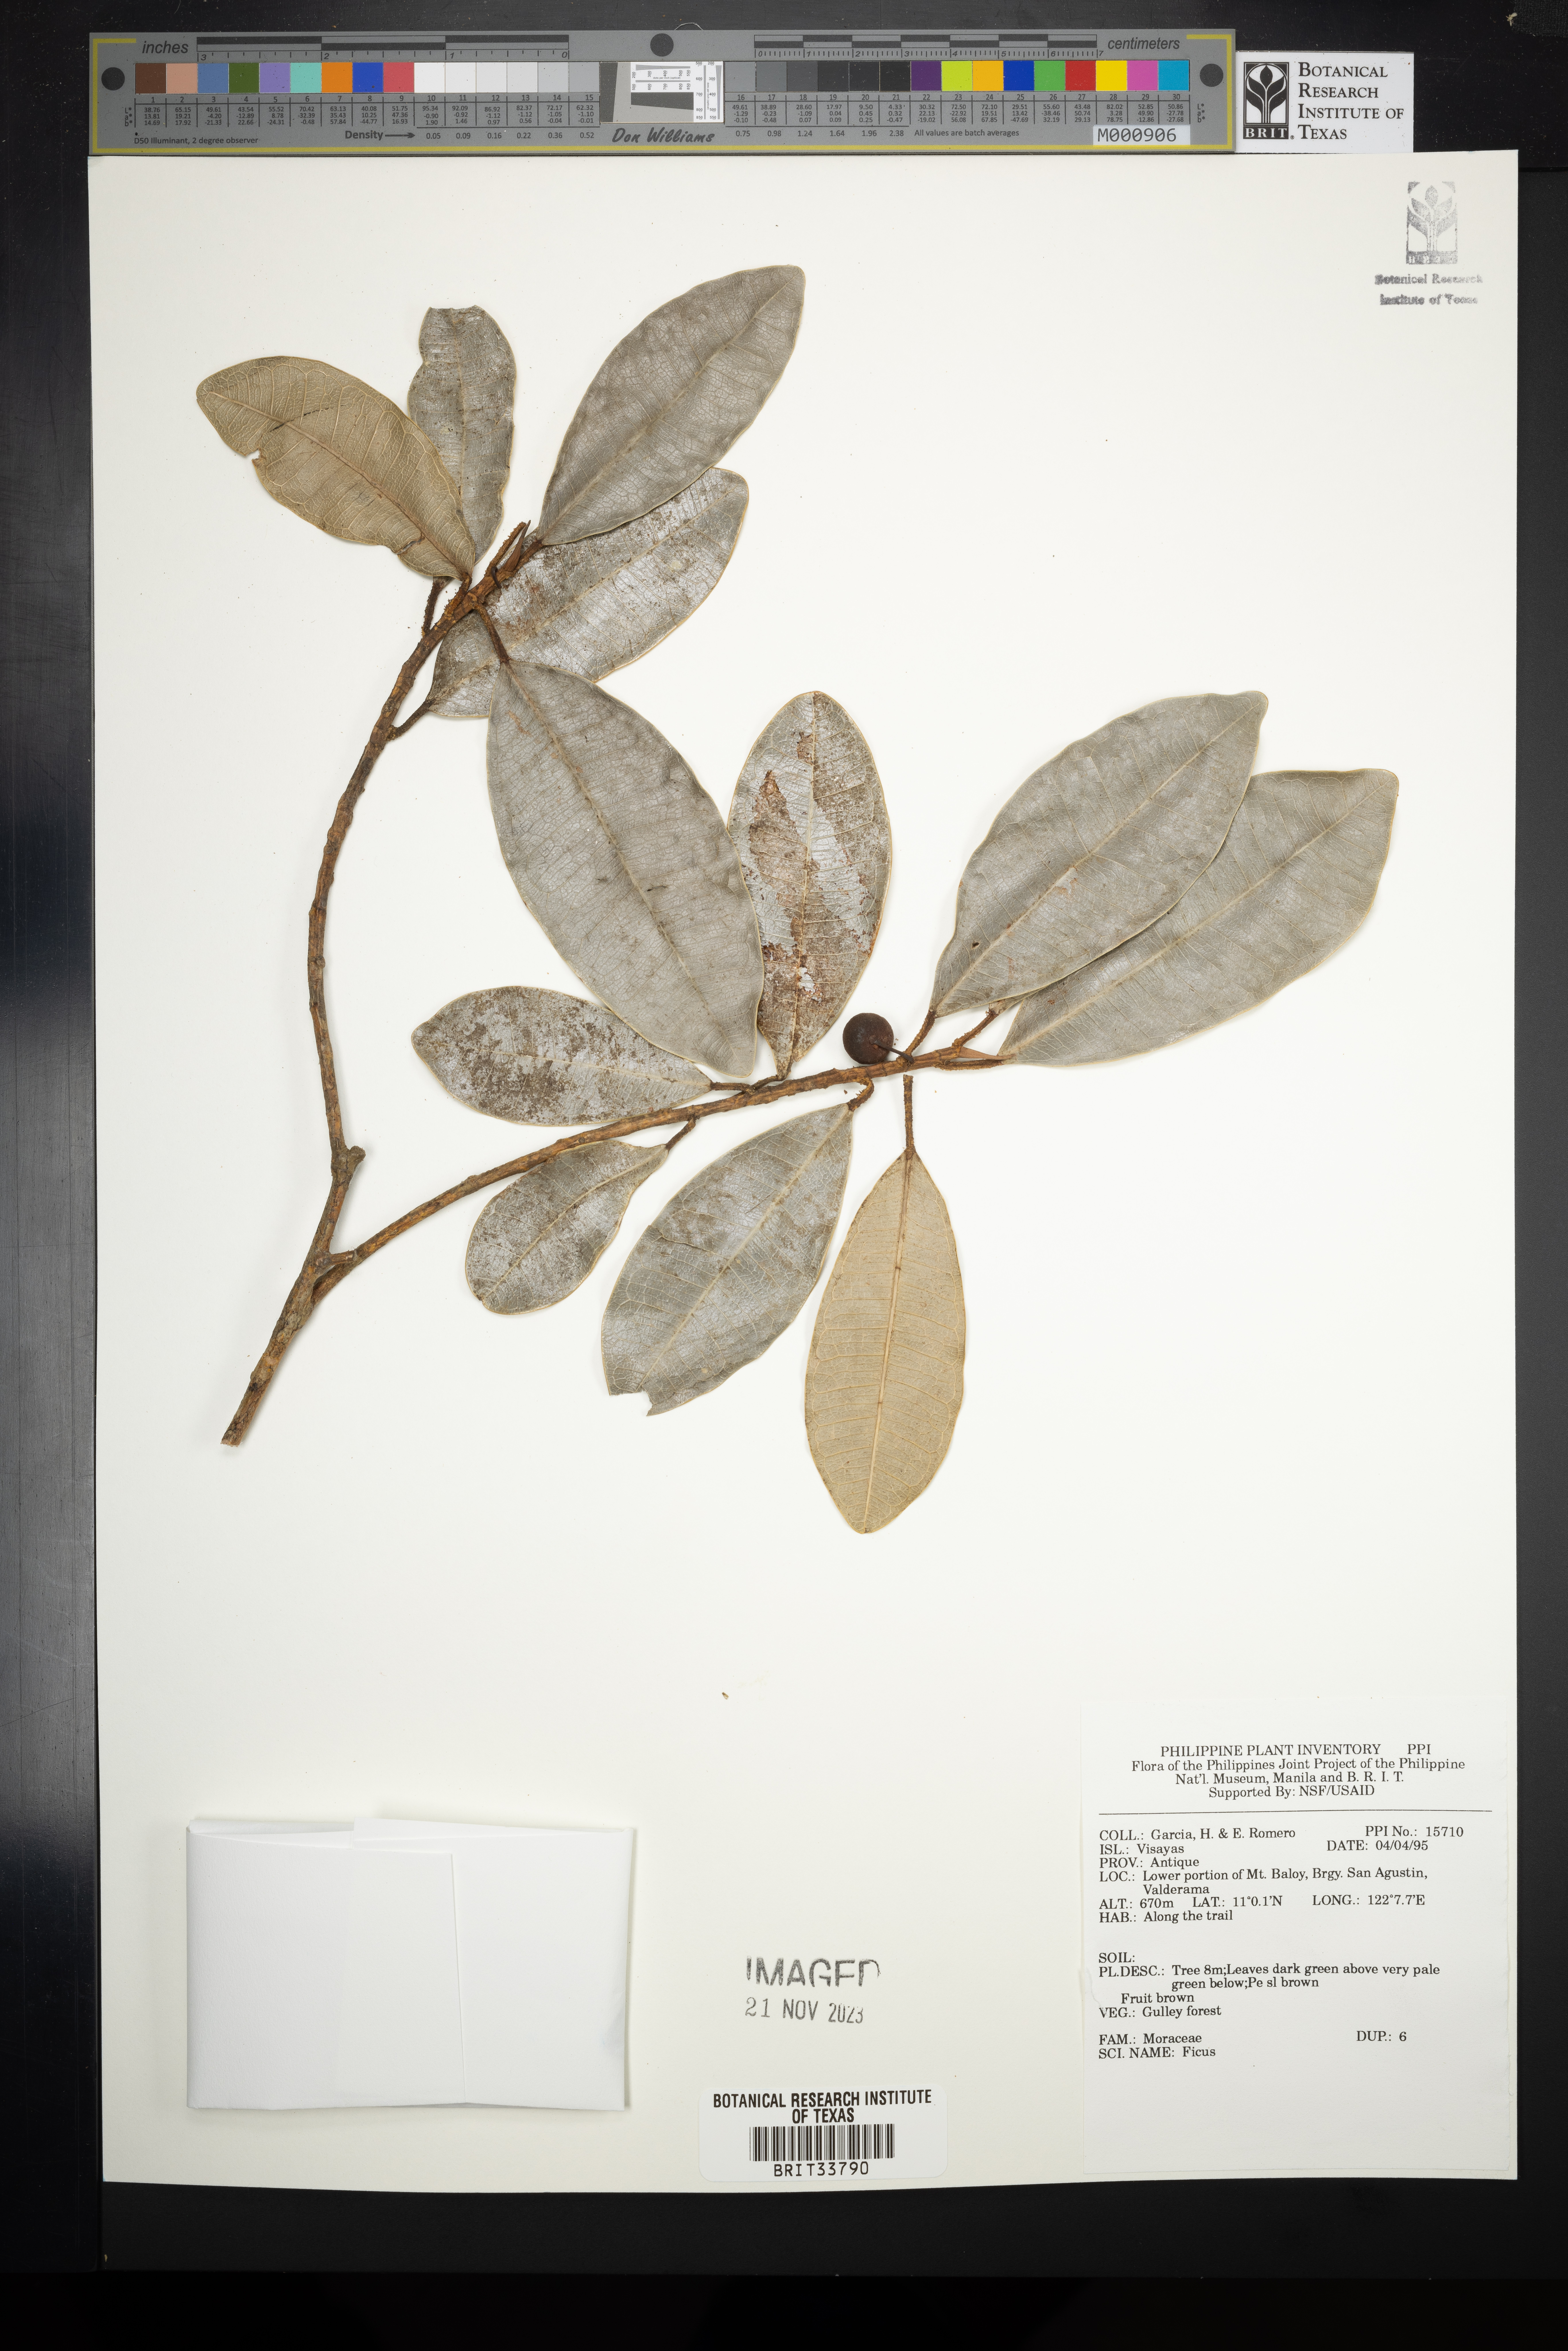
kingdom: Plantae
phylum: Tracheophyta
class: Magnoliopsida
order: Rosales
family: Moraceae
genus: Ficus
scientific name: Ficus
